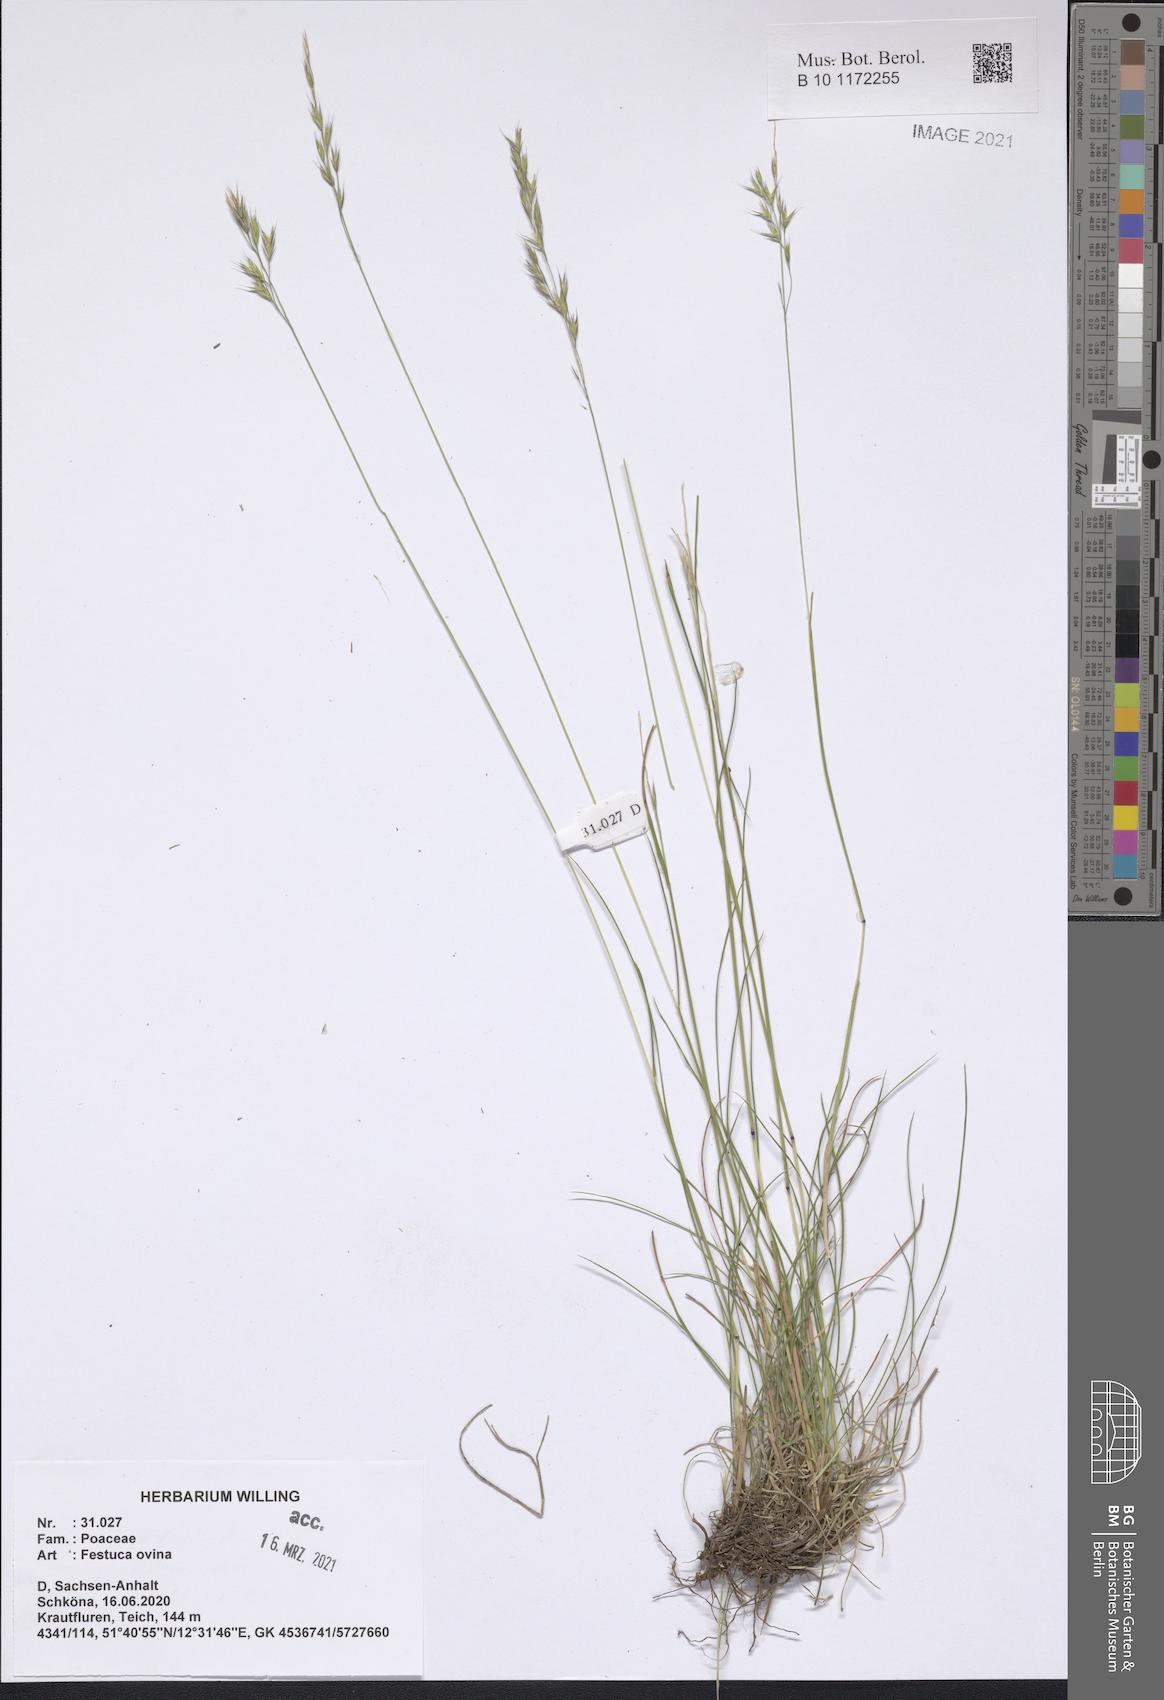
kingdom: Plantae
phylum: Tracheophyta
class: Liliopsida
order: Poales
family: Poaceae
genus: Festuca
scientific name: Festuca ovina
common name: Sheep fescue
